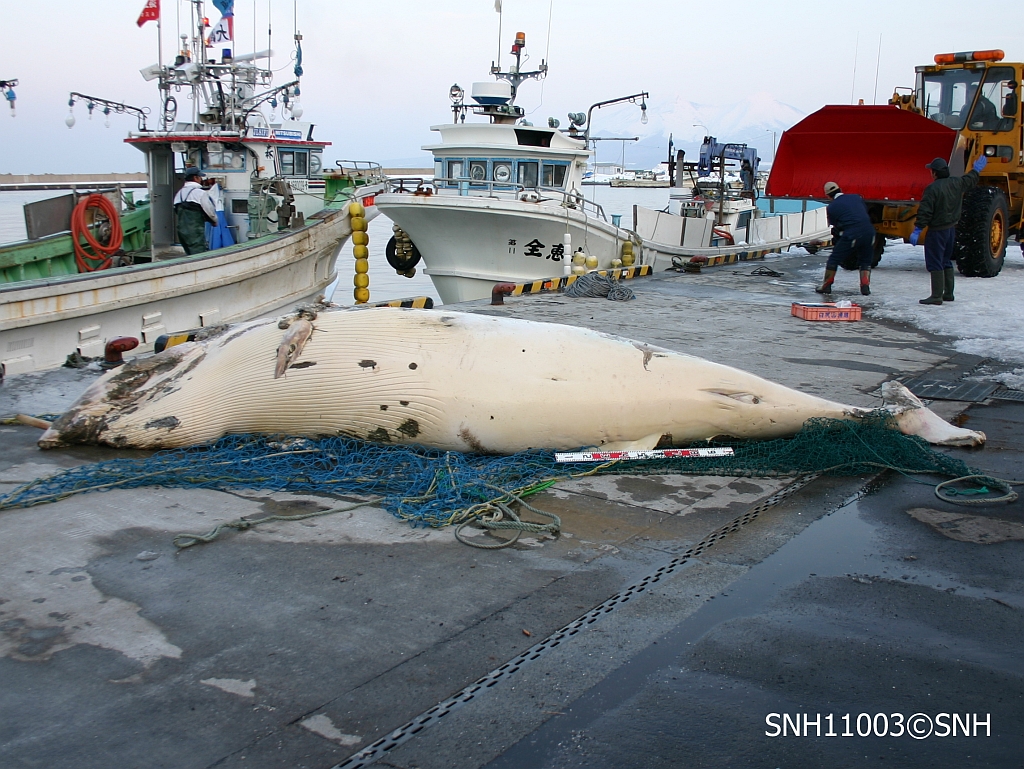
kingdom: Animalia
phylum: Chordata
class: Mammalia
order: Cetacea
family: Balaenopteridae
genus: Balaenoptera
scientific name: Balaenoptera
